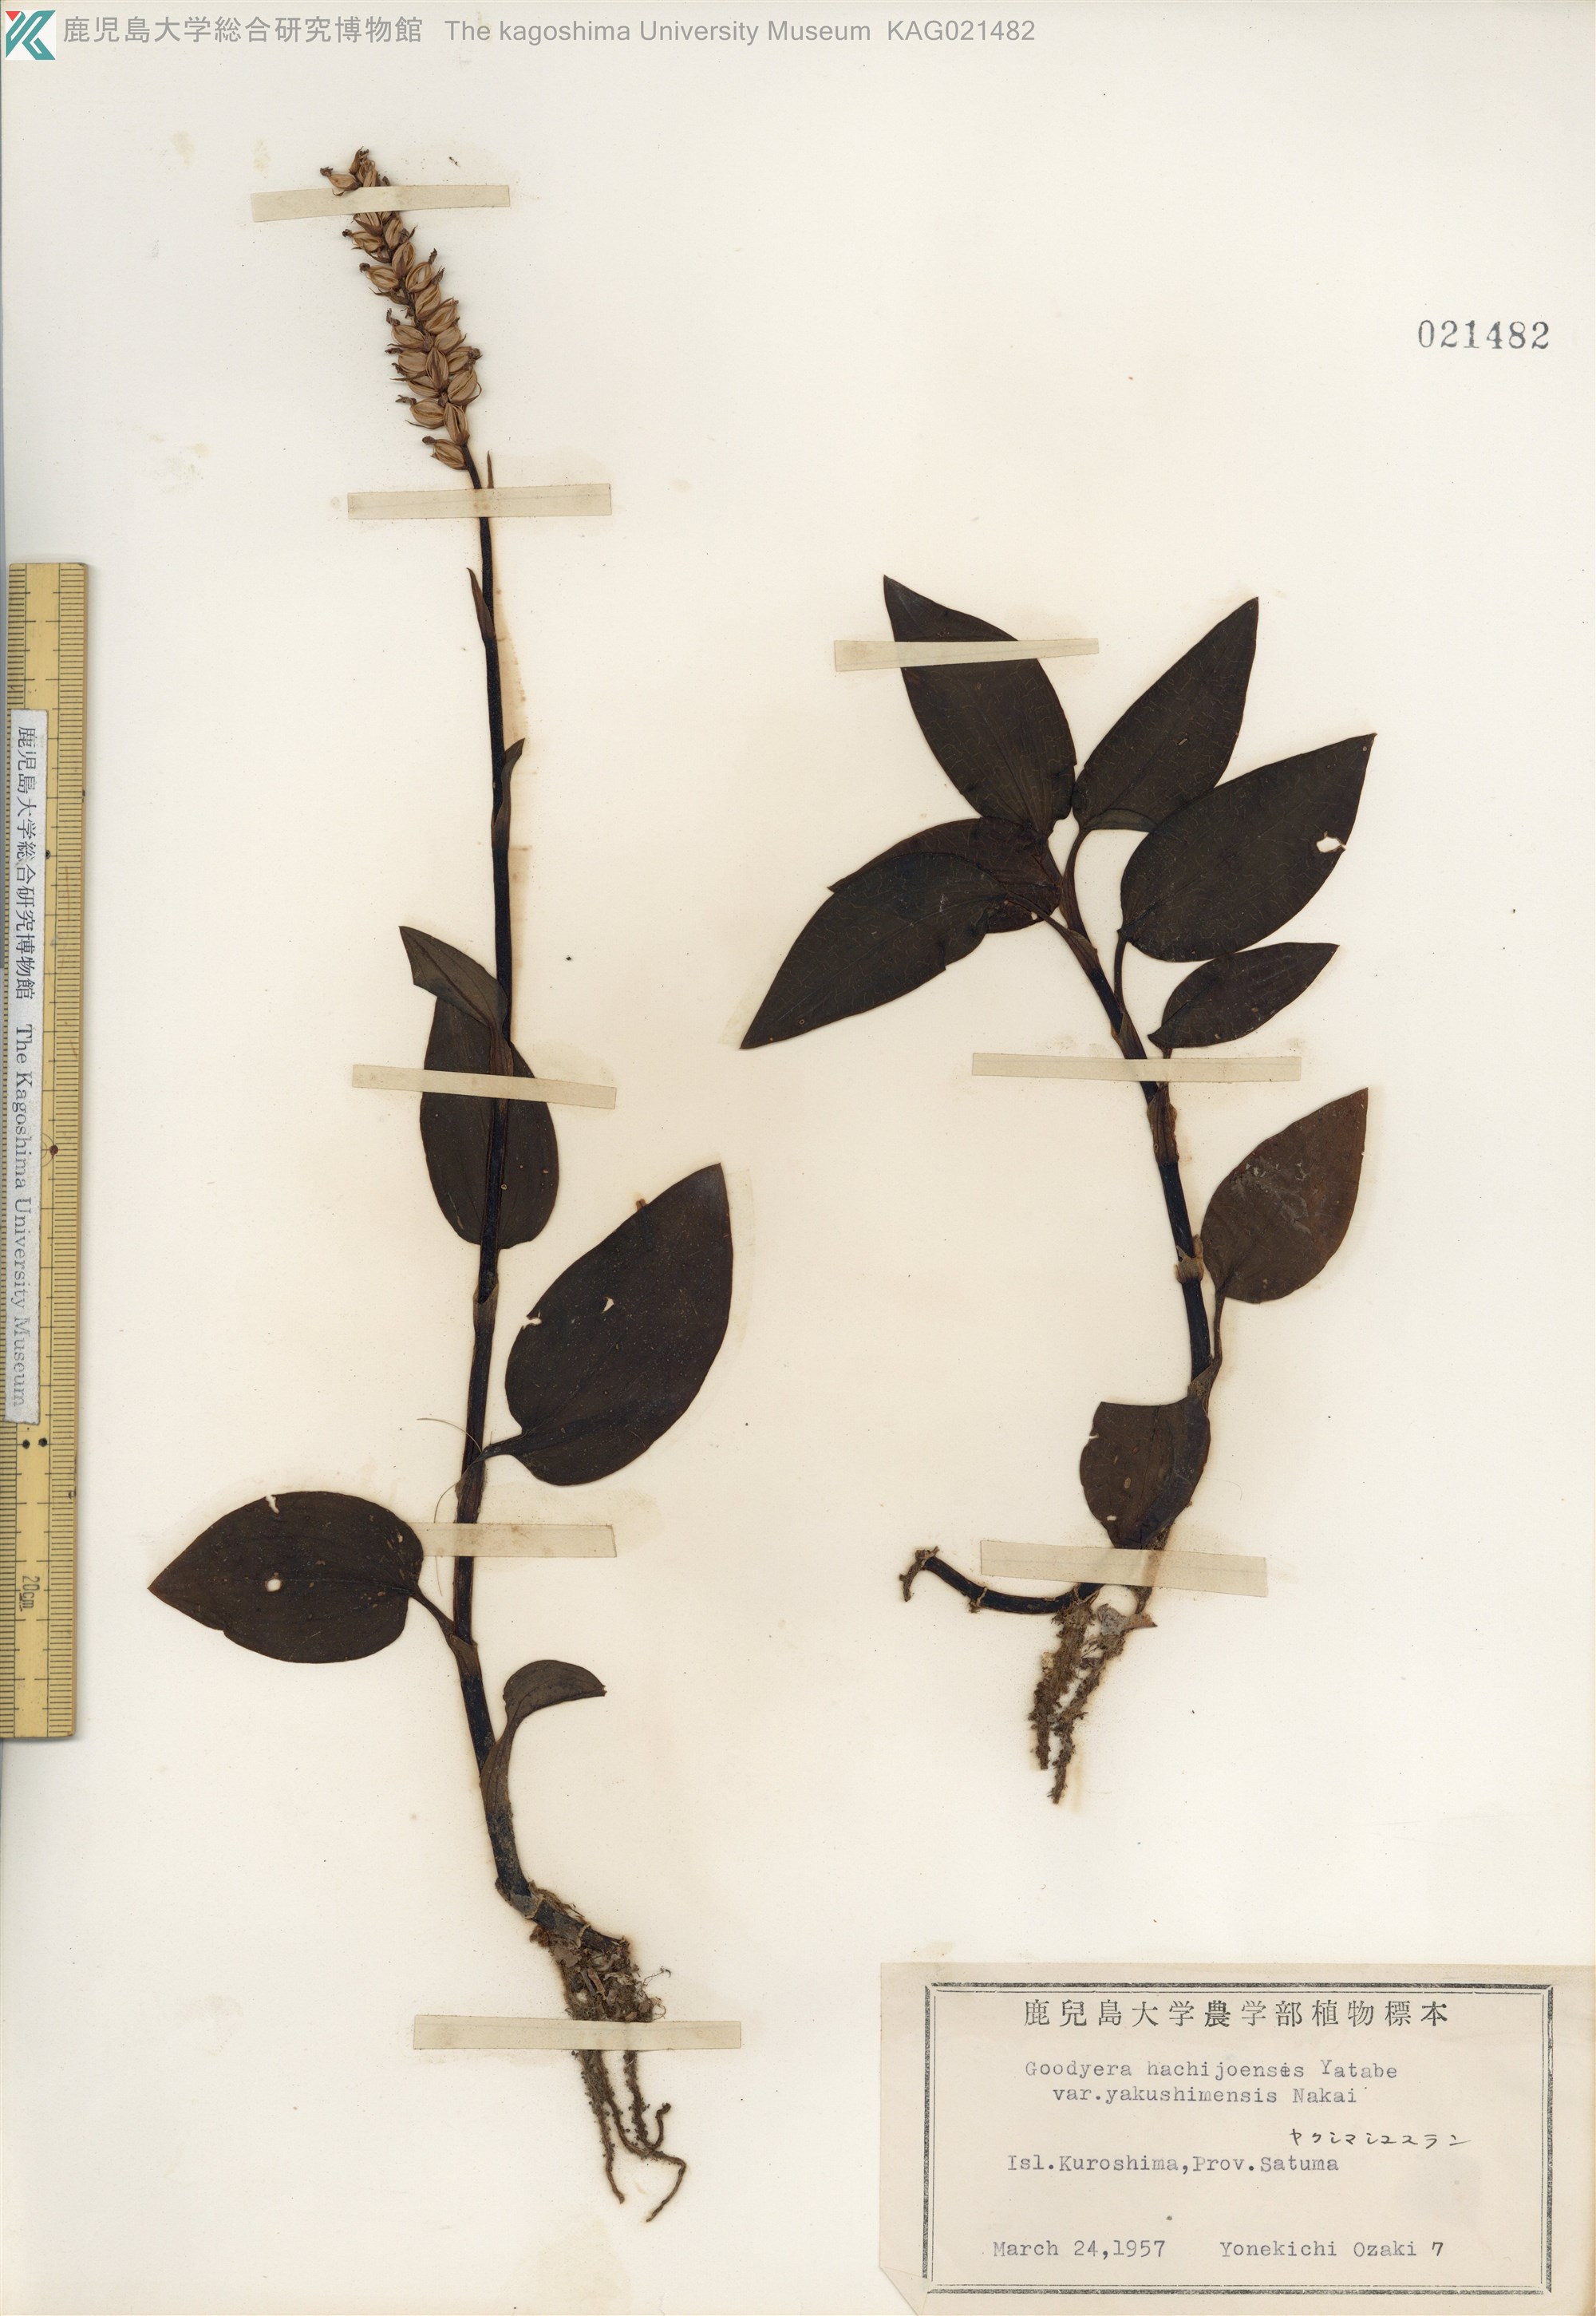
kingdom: Plantae
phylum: Tracheophyta
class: Liliopsida
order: Asparagales
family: Orchidaceae
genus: Goodyera
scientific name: Goodyera hachijoensis
